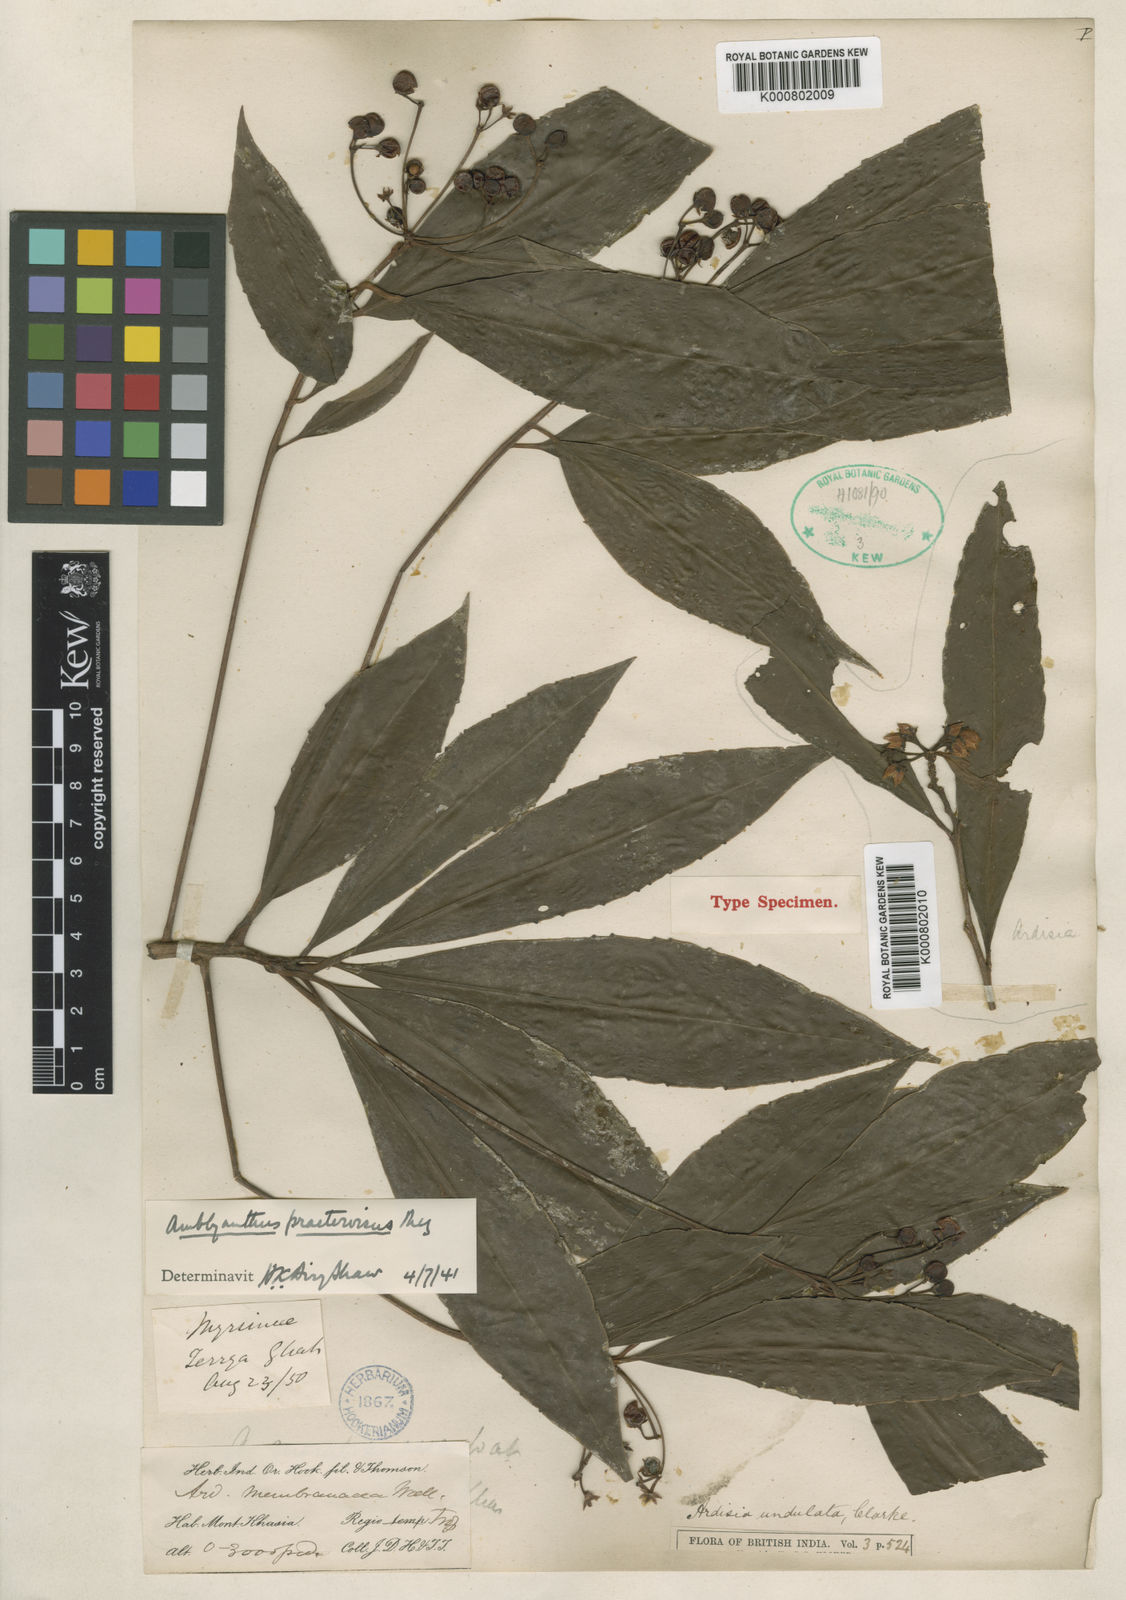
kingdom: Plantae
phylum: Tracheophyta
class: Magnoliopsida
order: Ericales
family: Primulaceae
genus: Amblyanthus
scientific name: Amblyanthus glandulosus
